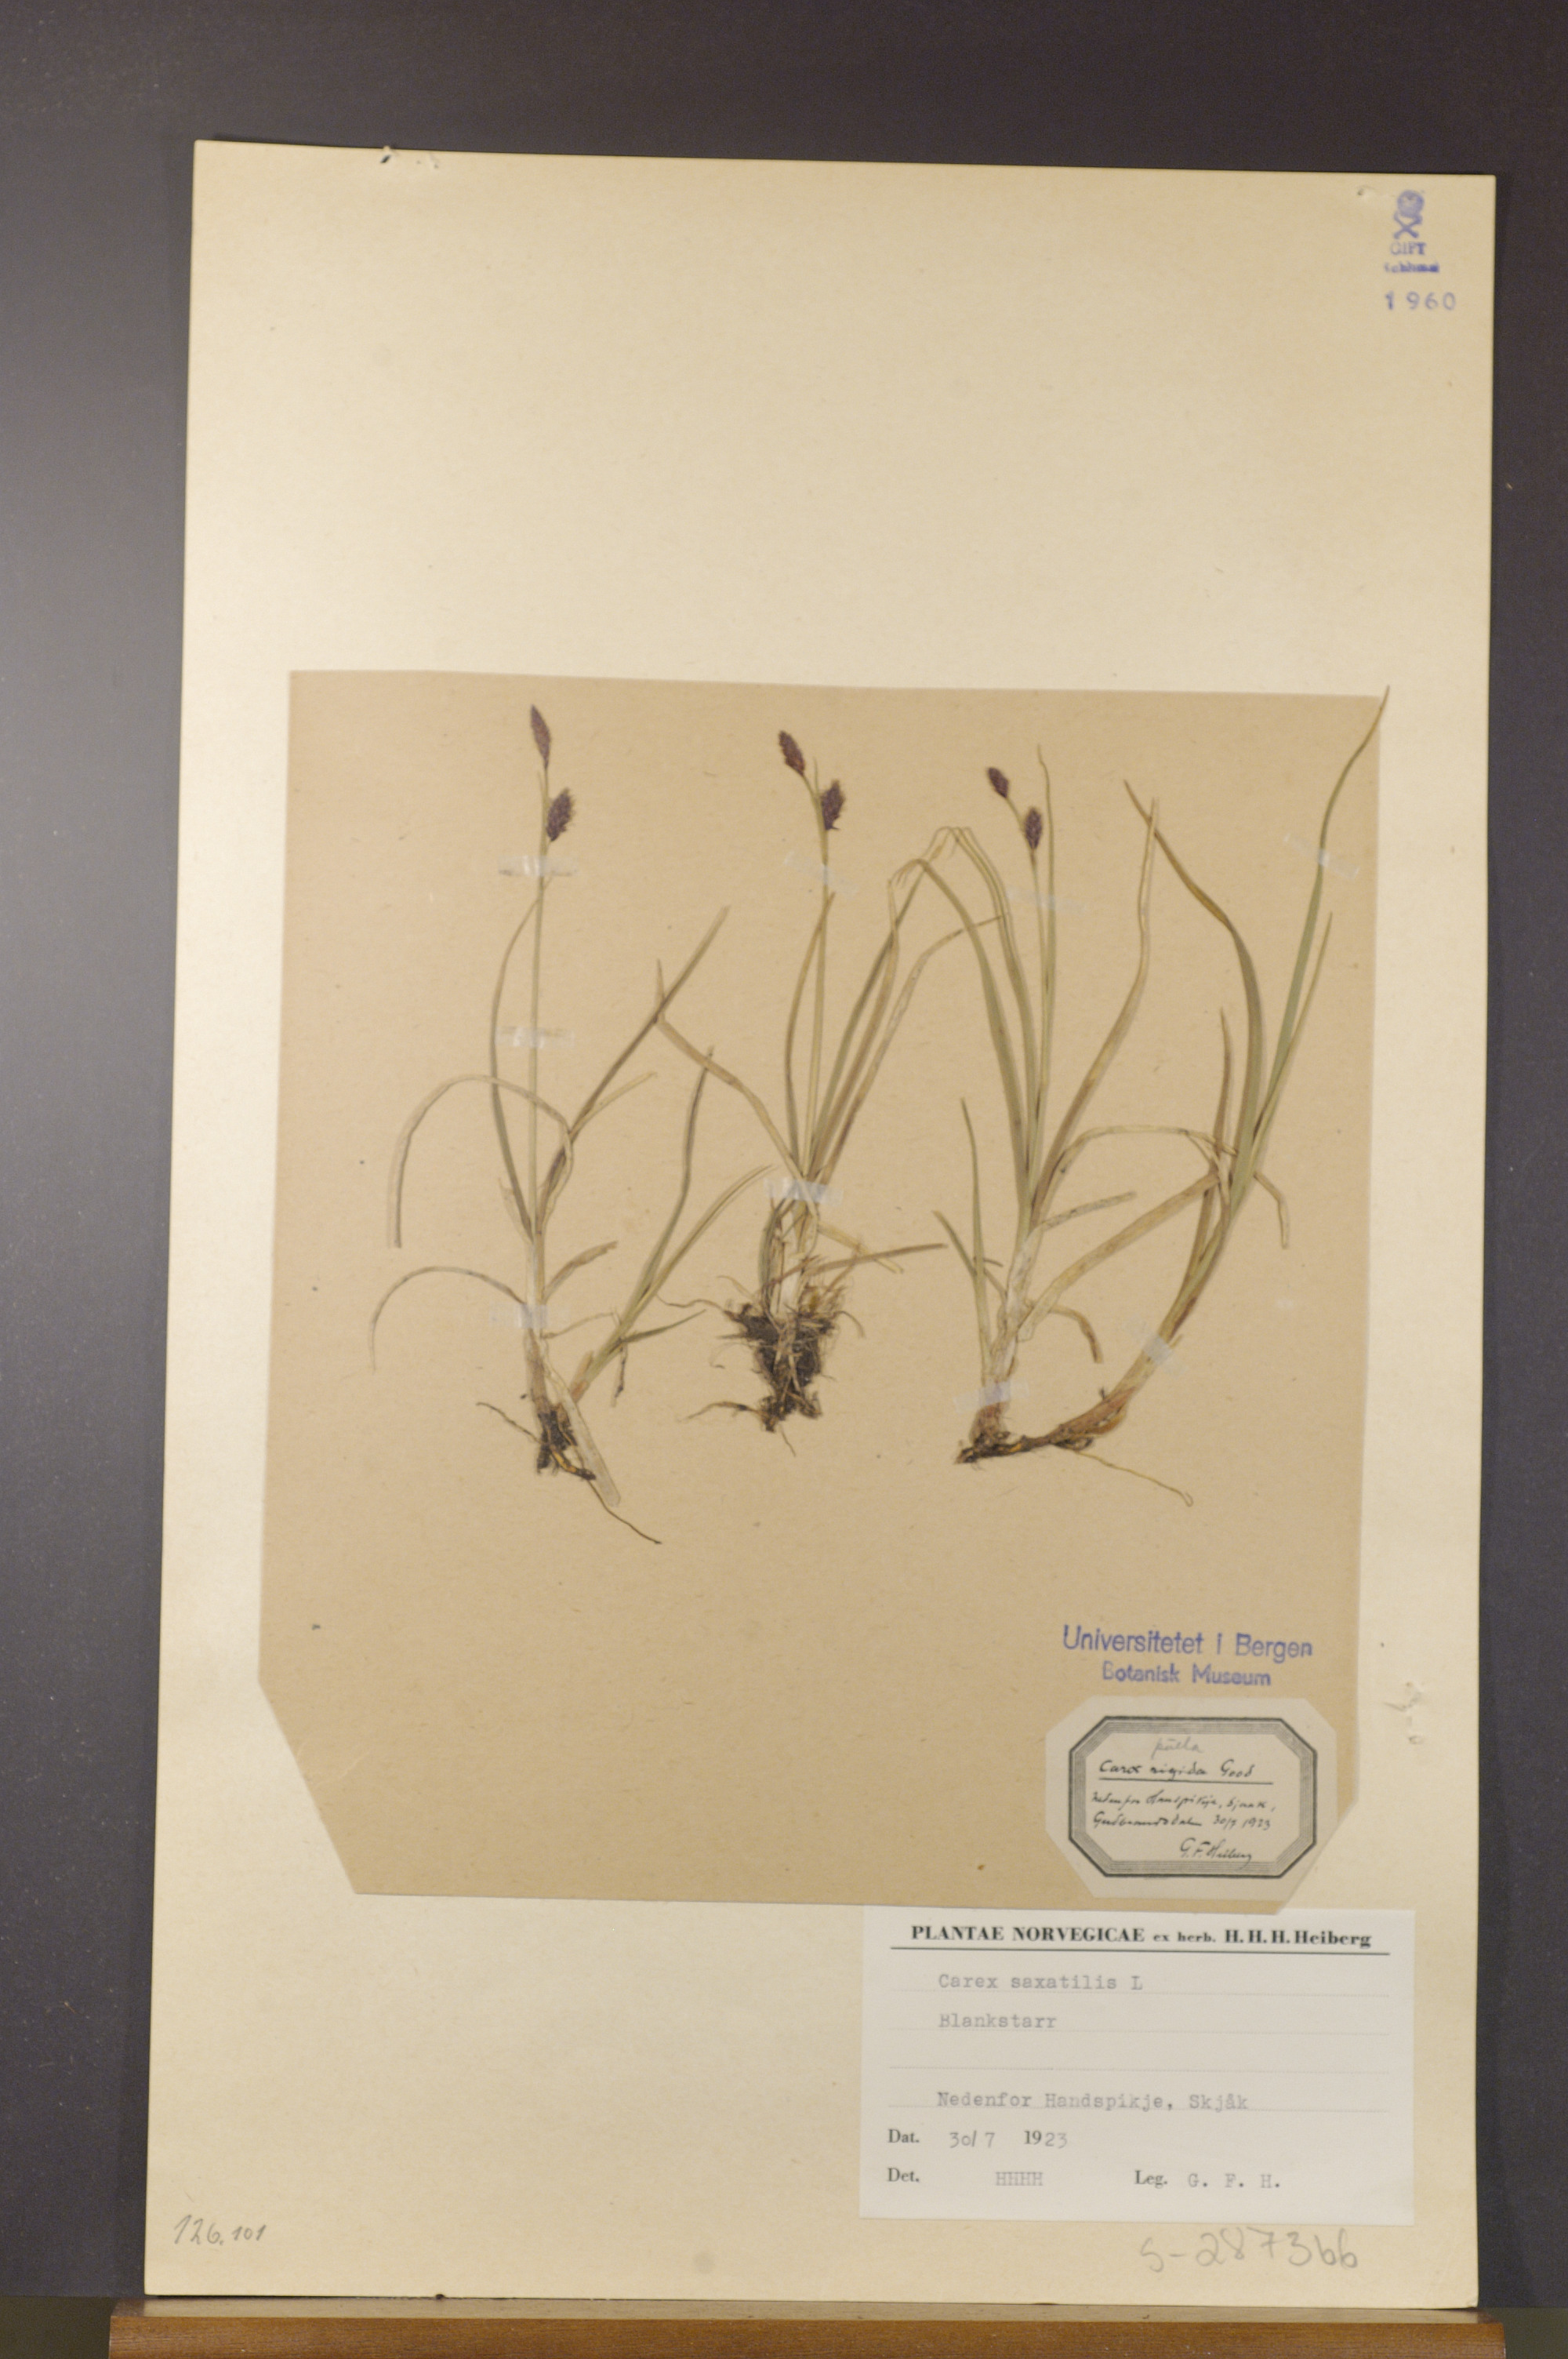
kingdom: Plantae
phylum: Tracheophyta
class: Liliopsida
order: Poales
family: Cyperaceae
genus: Carex
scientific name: Carex saxatilis
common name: Russet sedge
